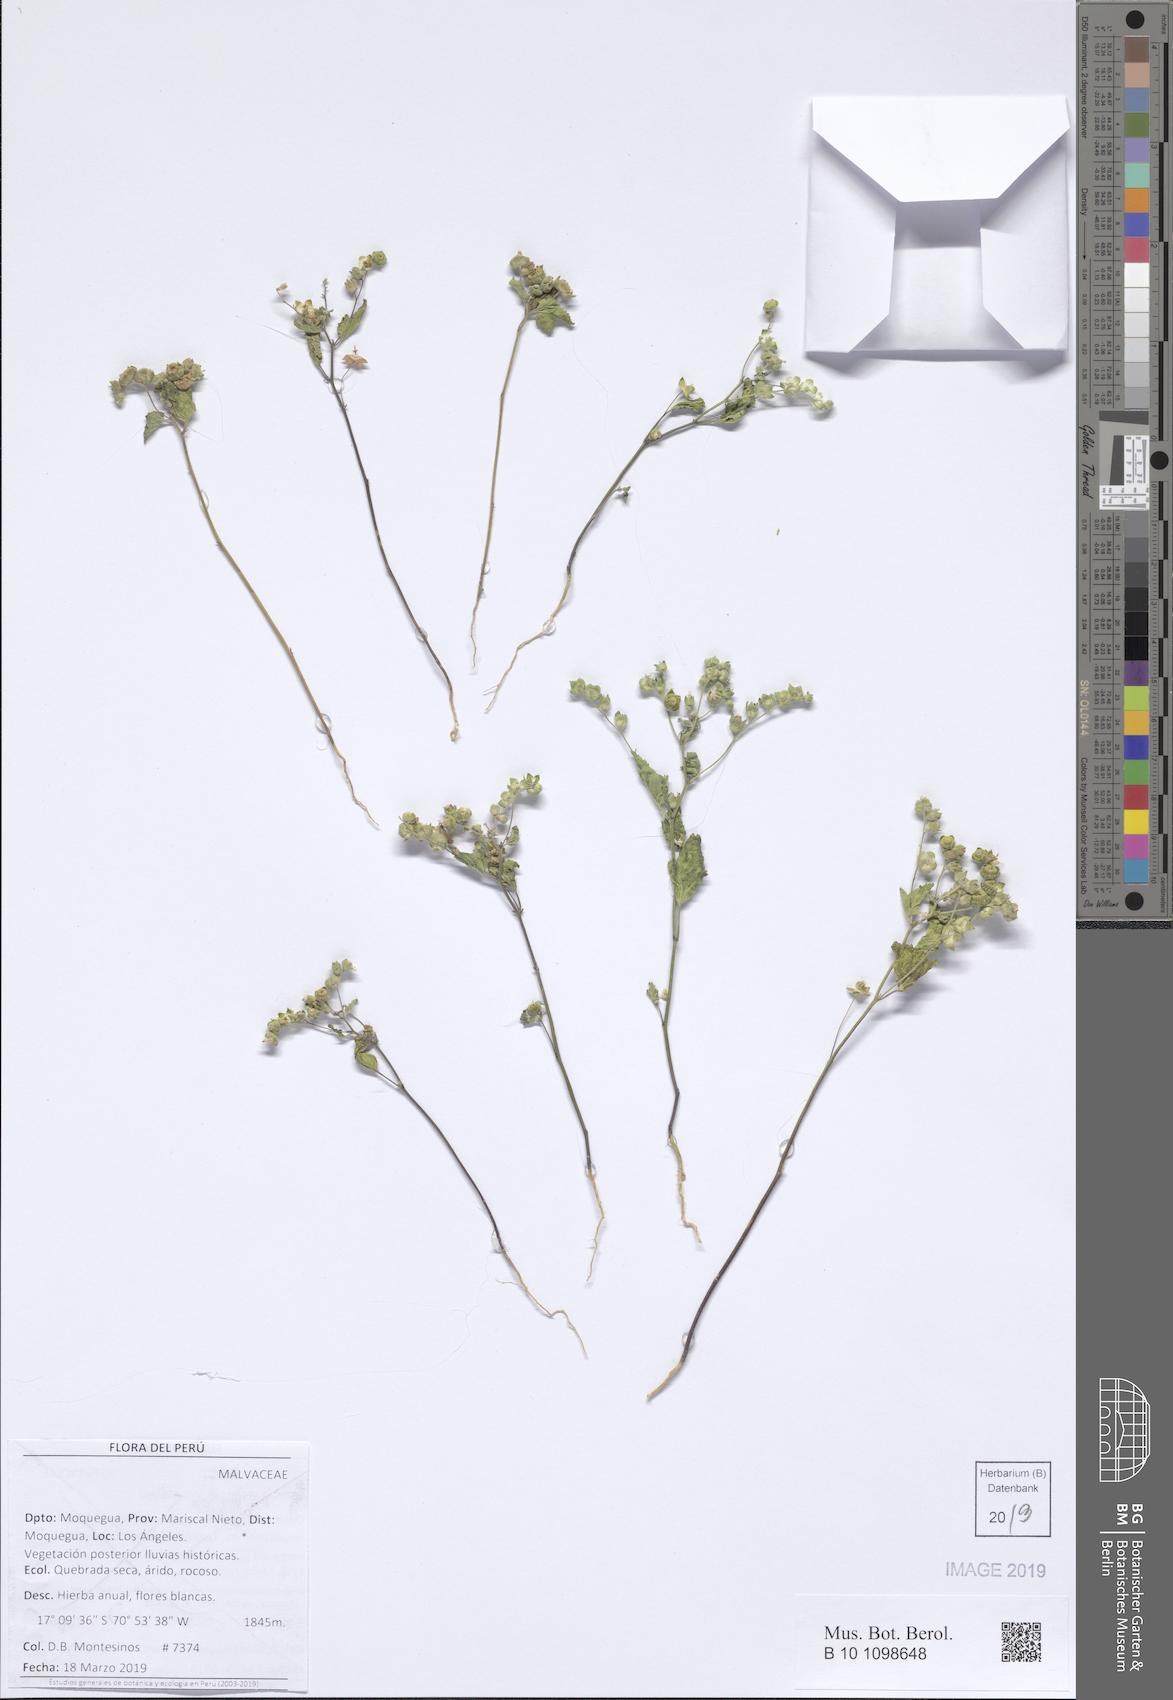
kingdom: Plantae
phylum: Tracheophyta
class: Magnoliopsida
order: Malvales
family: Malvaceae
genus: Tarasa
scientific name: Tarasa
